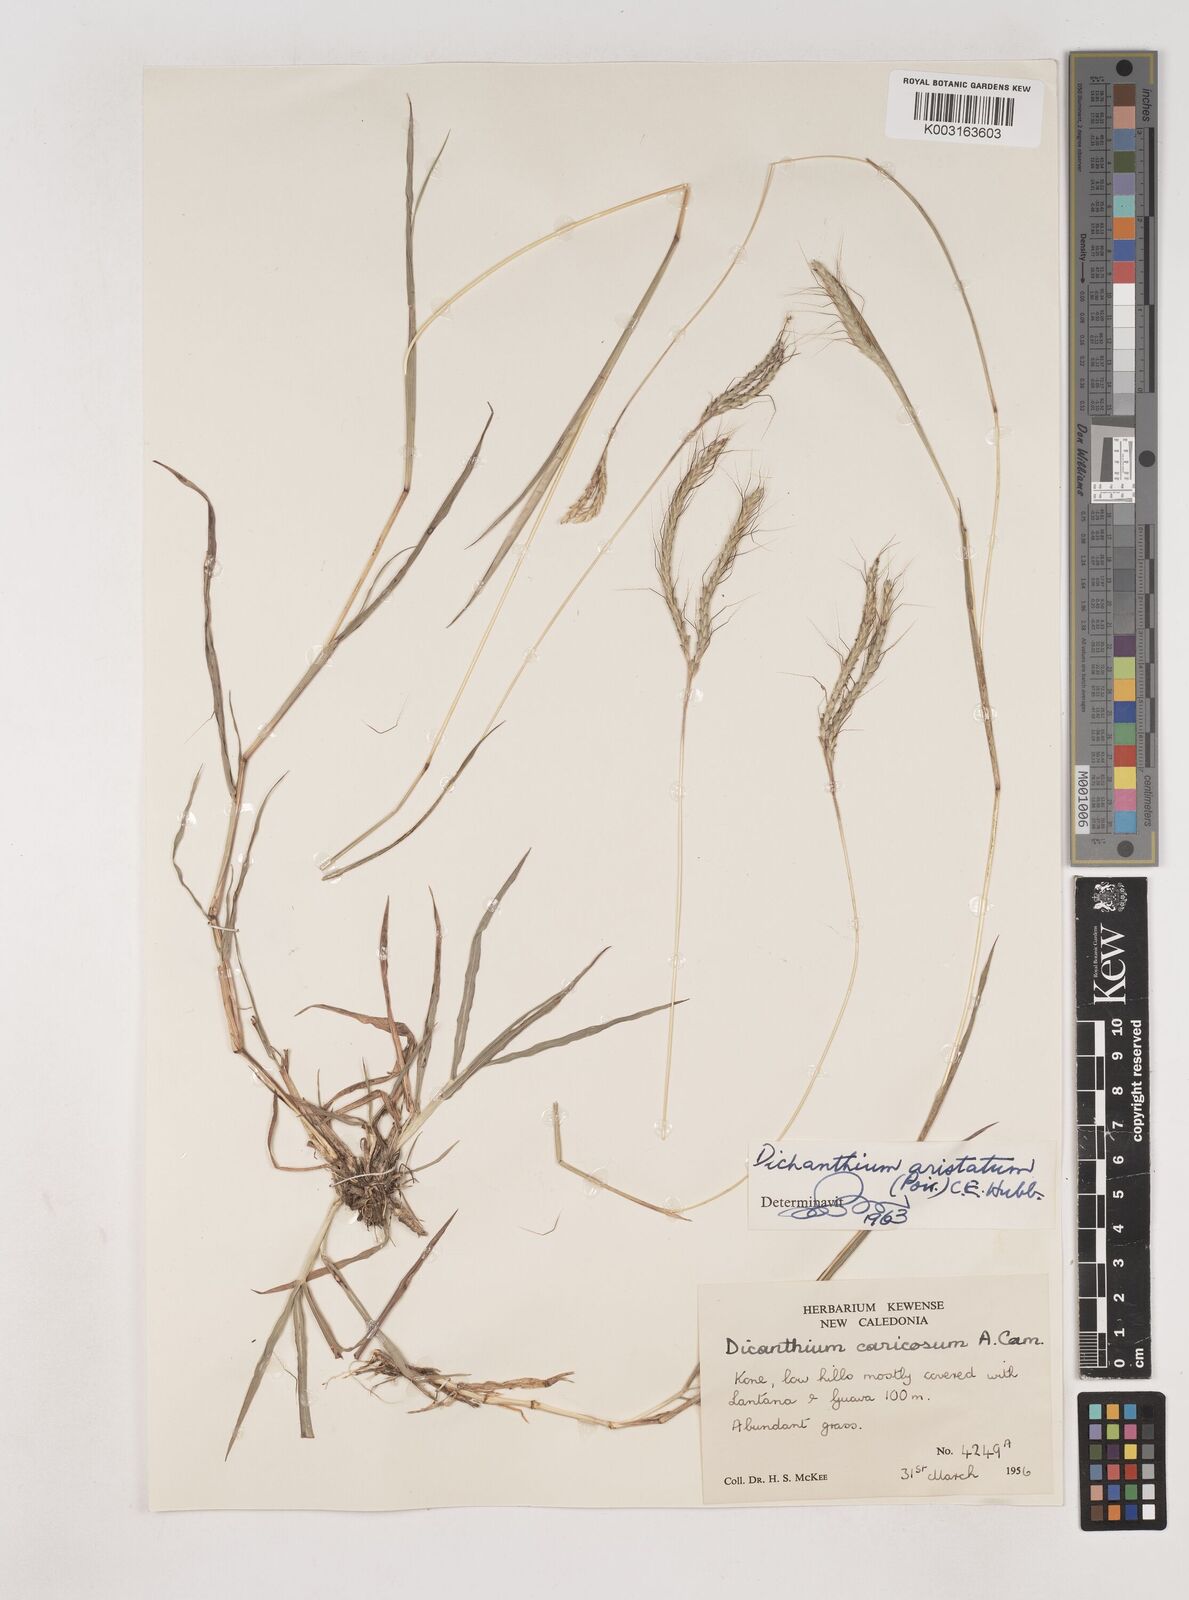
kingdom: Plantae
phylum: Tracheophyta
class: Liliopsida
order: Poales
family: Poaceae
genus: Dichanthium
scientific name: Dichanthium aristatum
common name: Angleton bluestem
